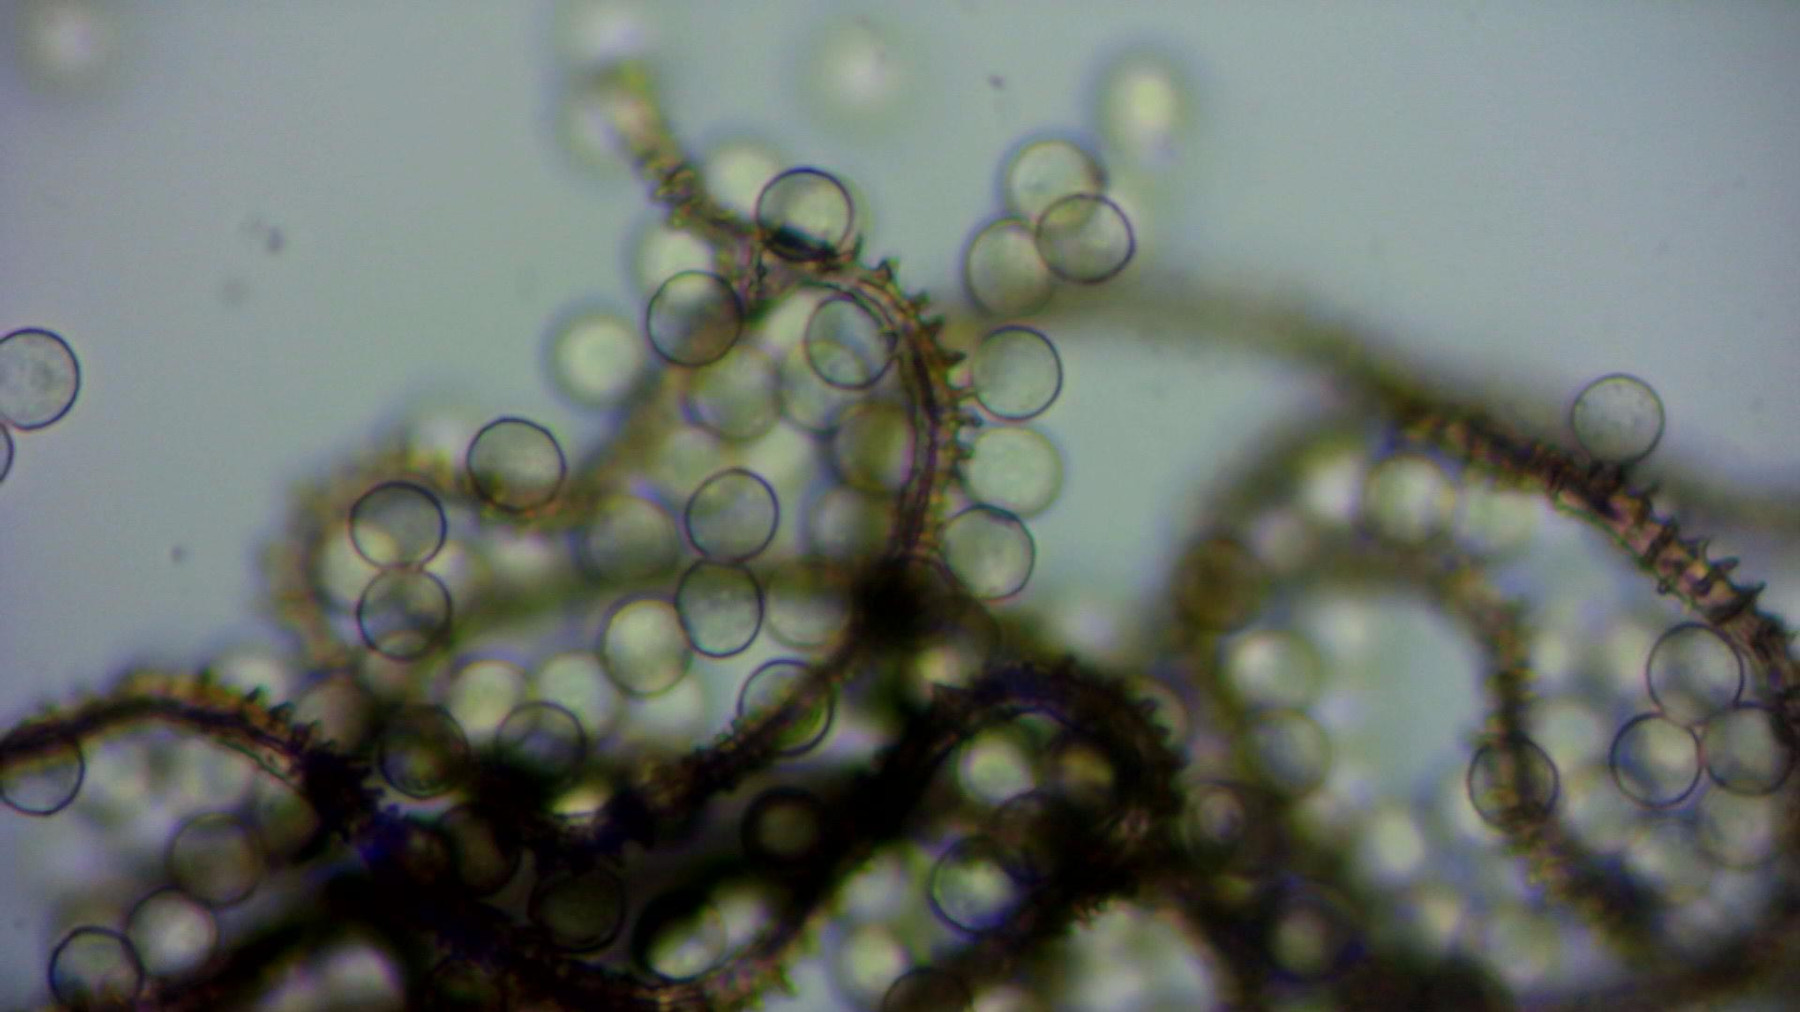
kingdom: Protozoa
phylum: Mycetozoa
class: Myxomycetes
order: Trichiales
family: Arcyriaceae
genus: Arcyria
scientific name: Arcyria incarnata
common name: rosa skålsvøb
